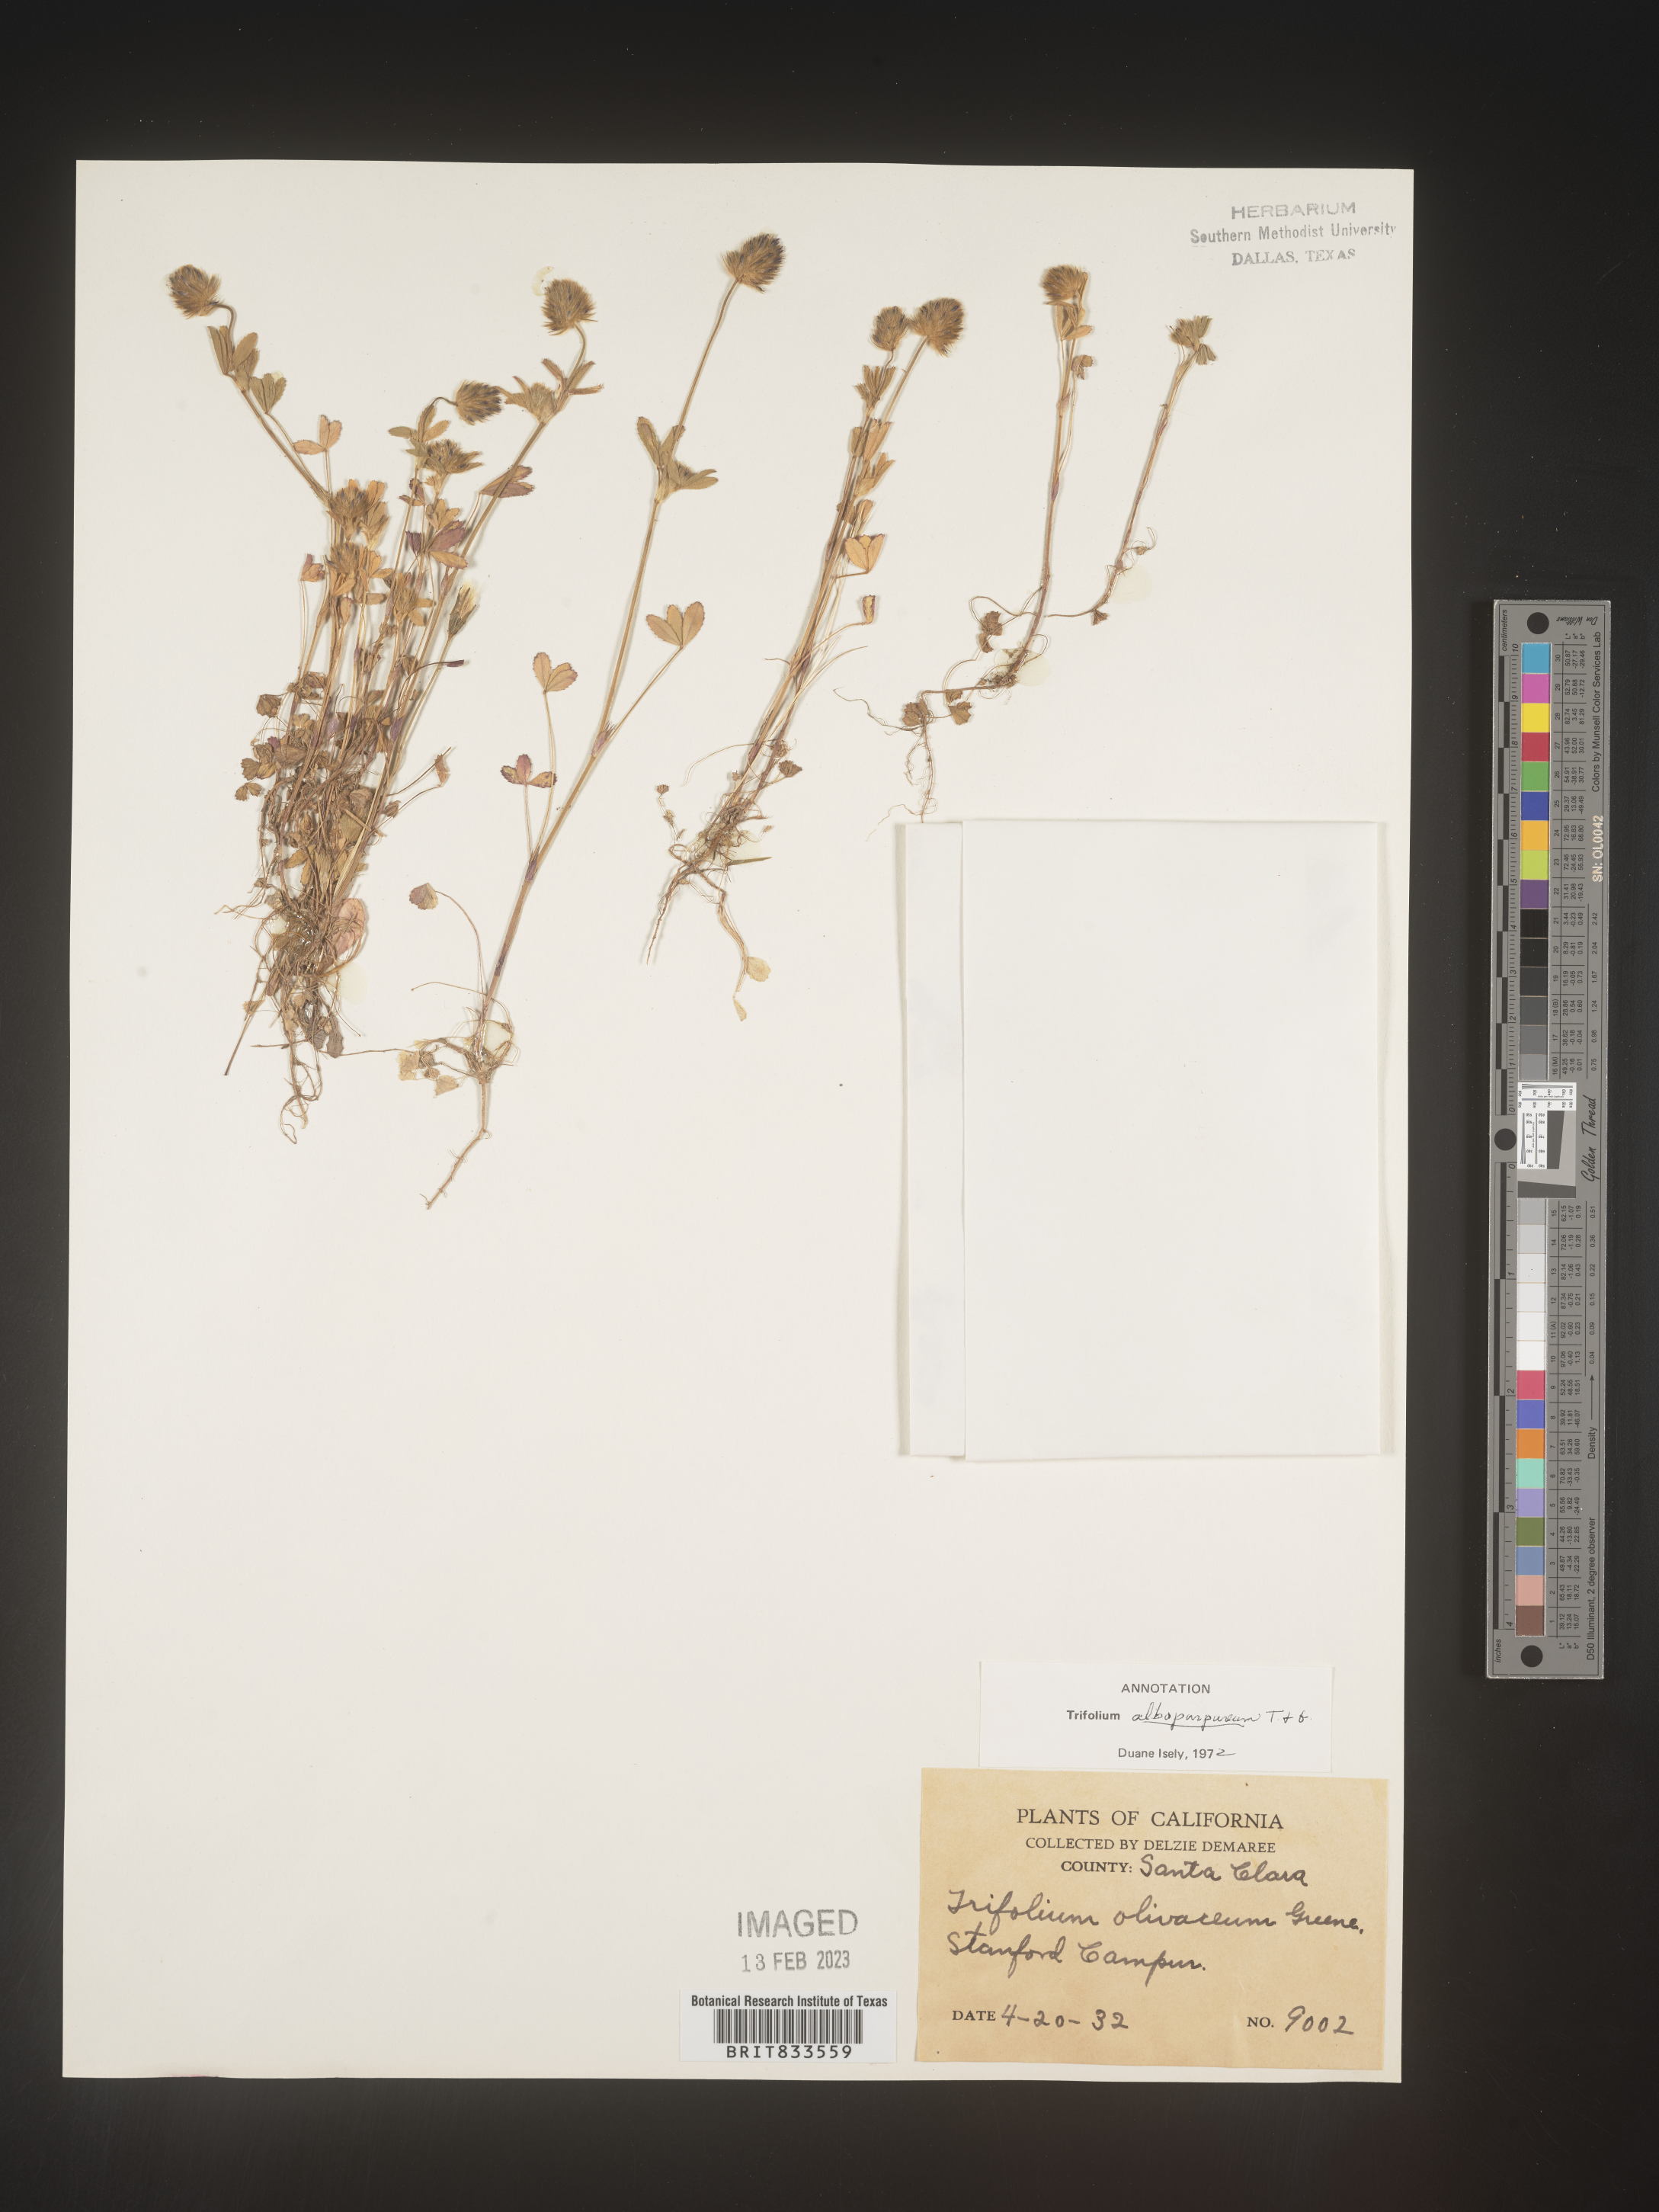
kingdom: Plantae
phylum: Tracheophyta
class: Magnoliopsida
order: Fabales
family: Fabaceae
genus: Trifolium
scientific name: Trifolium
